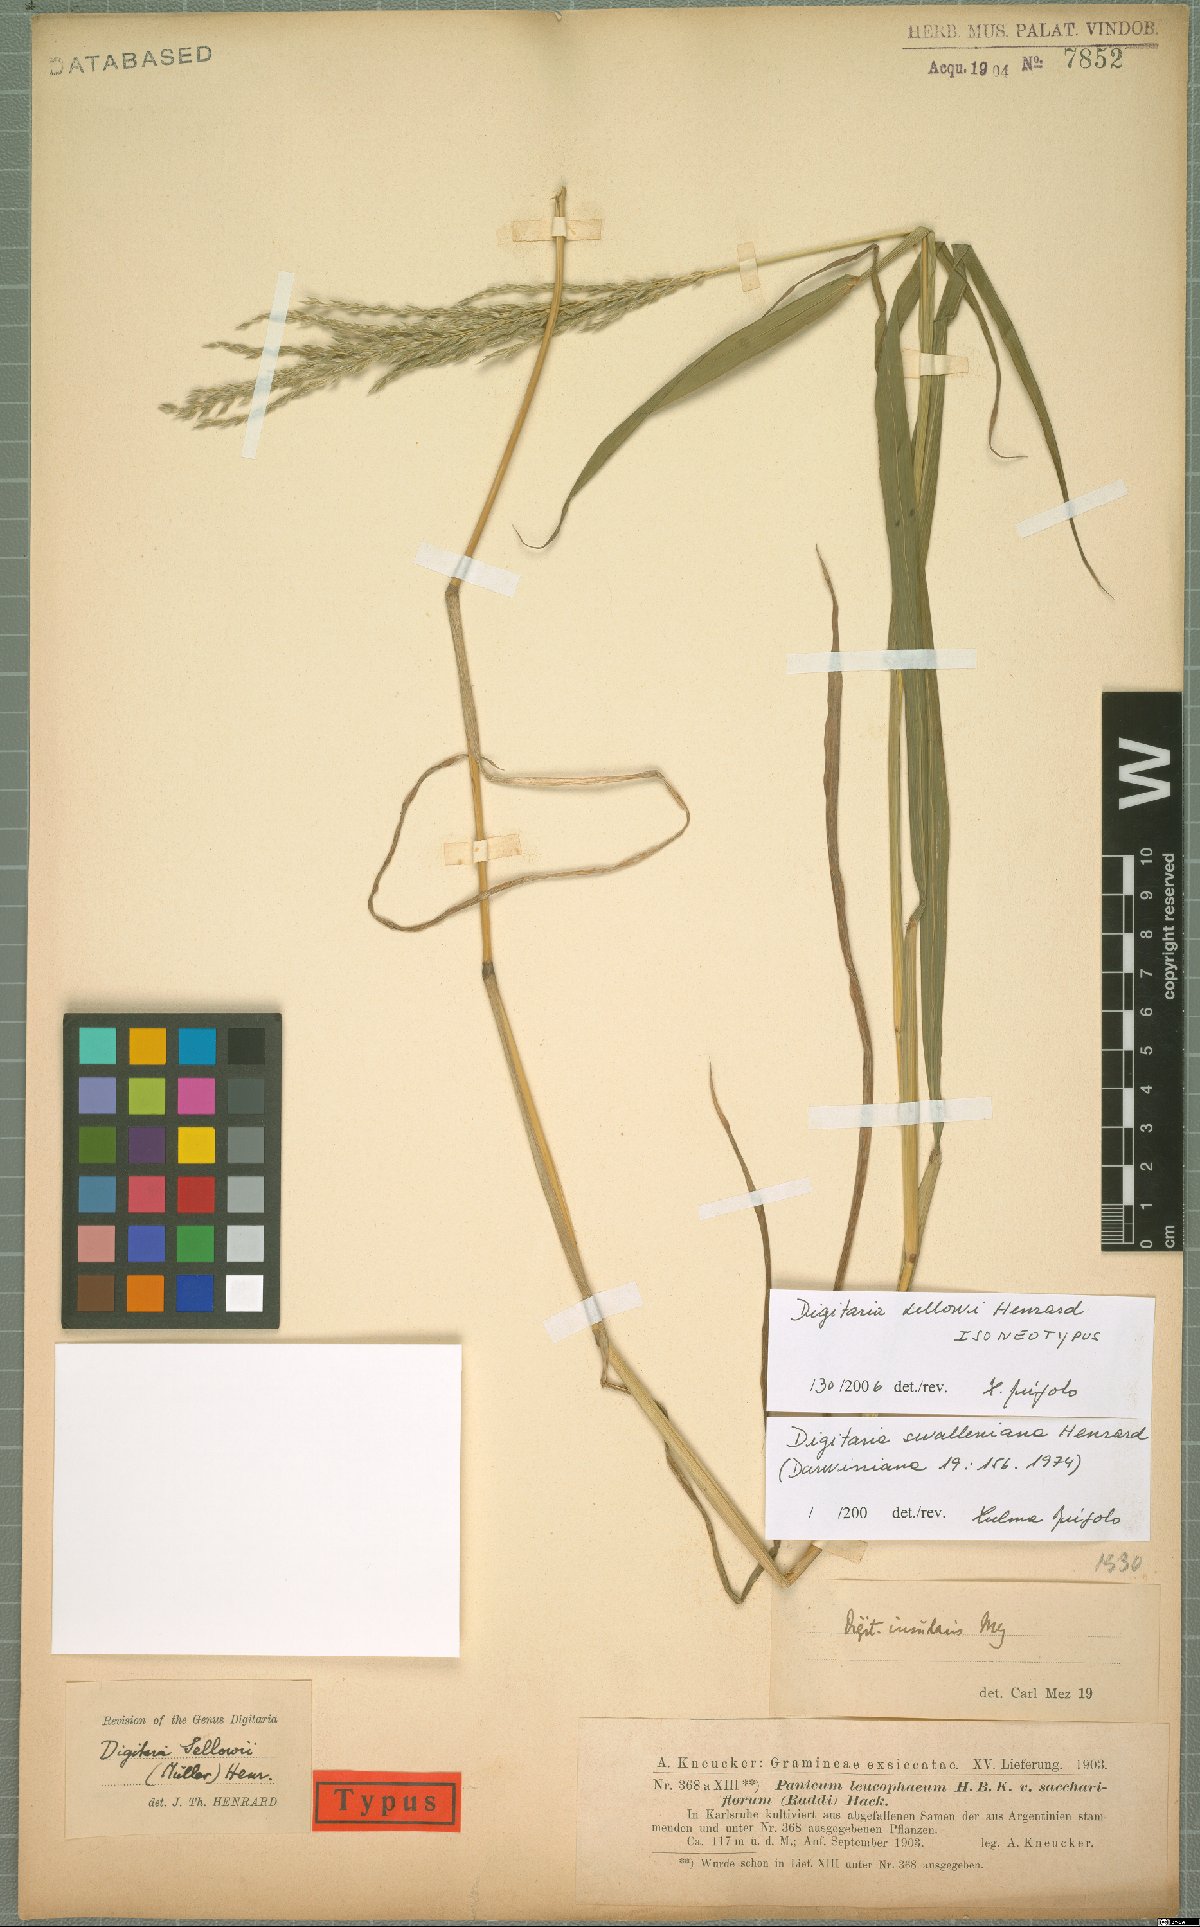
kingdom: Plantae
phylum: Tracheophyta
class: Liliopsida
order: Poales
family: Poaceae
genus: Digitaria
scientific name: Digitaria sellowii
